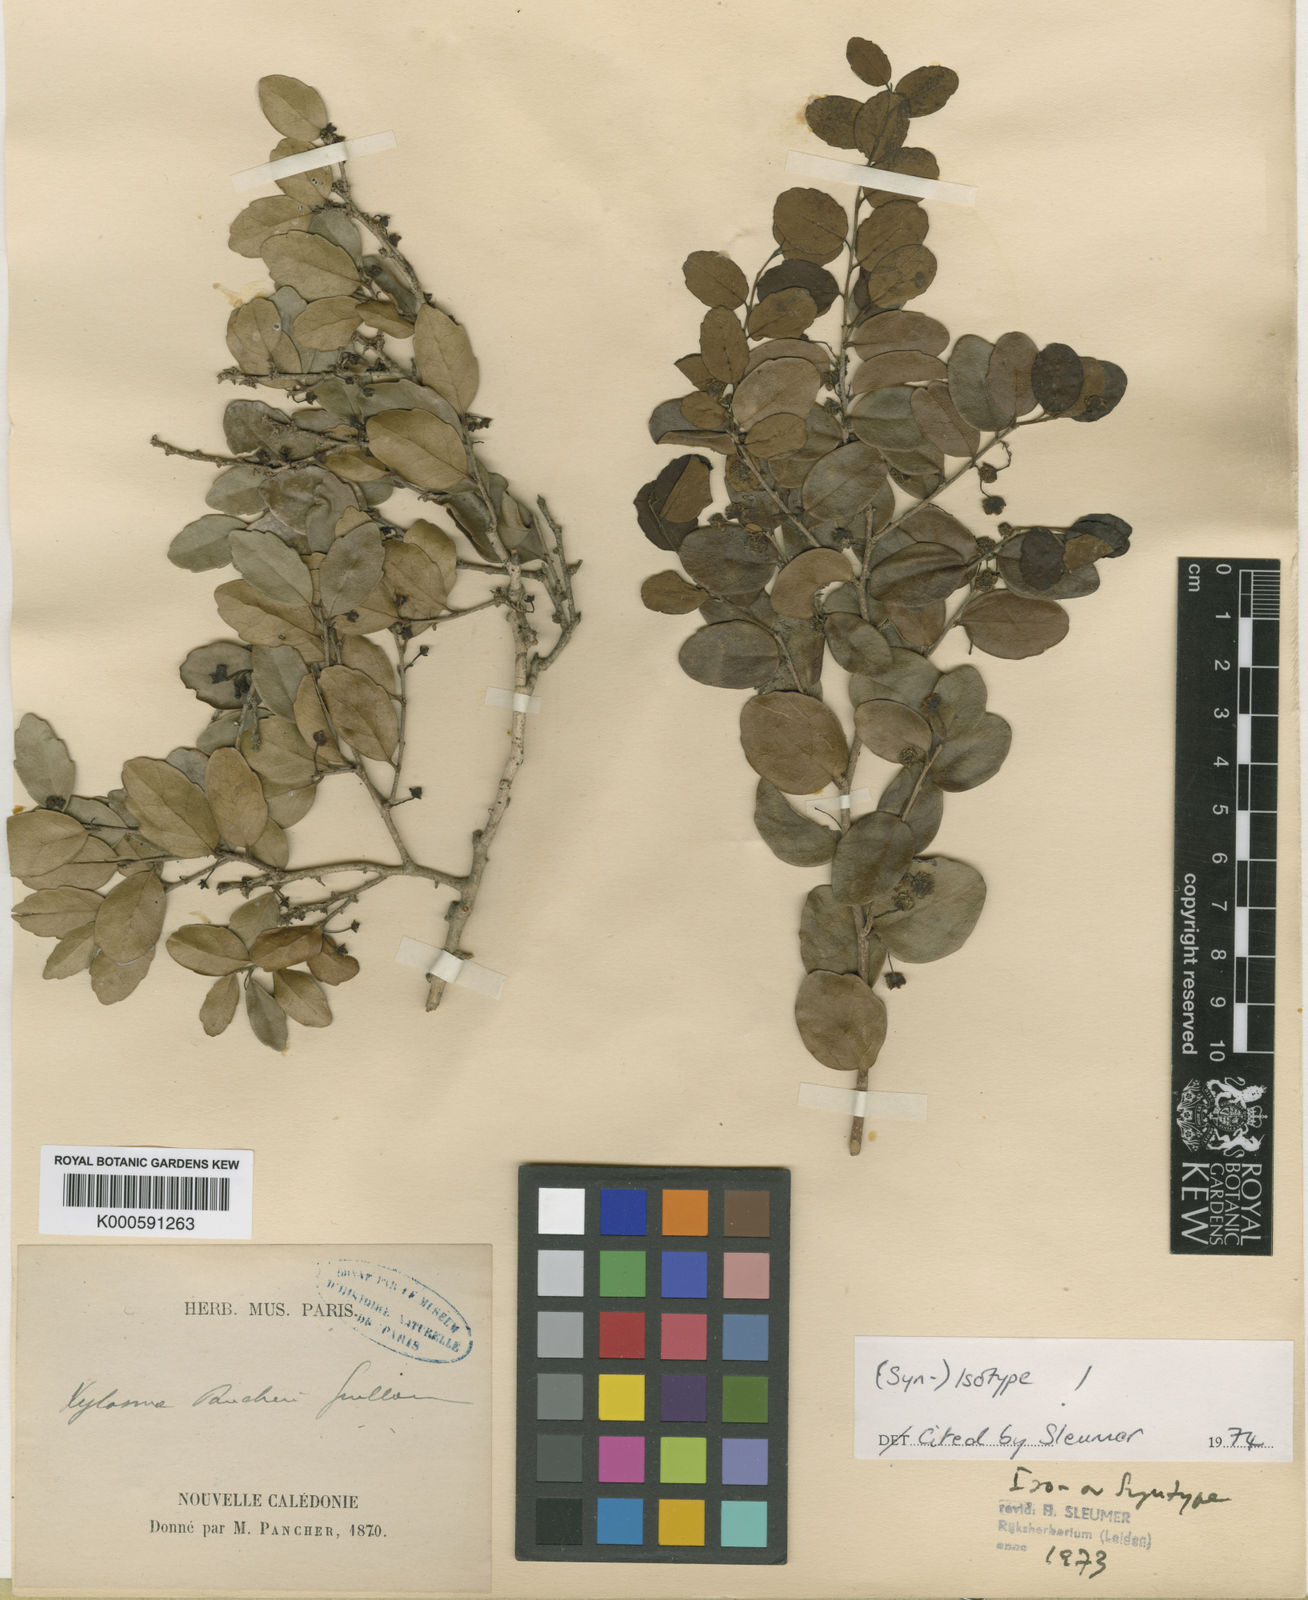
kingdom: Plantae
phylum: Tracheophyta
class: Magnoliopsida
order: Malpighiales
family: Salicaceae
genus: Xylosma
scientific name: Xylosma pancheri
